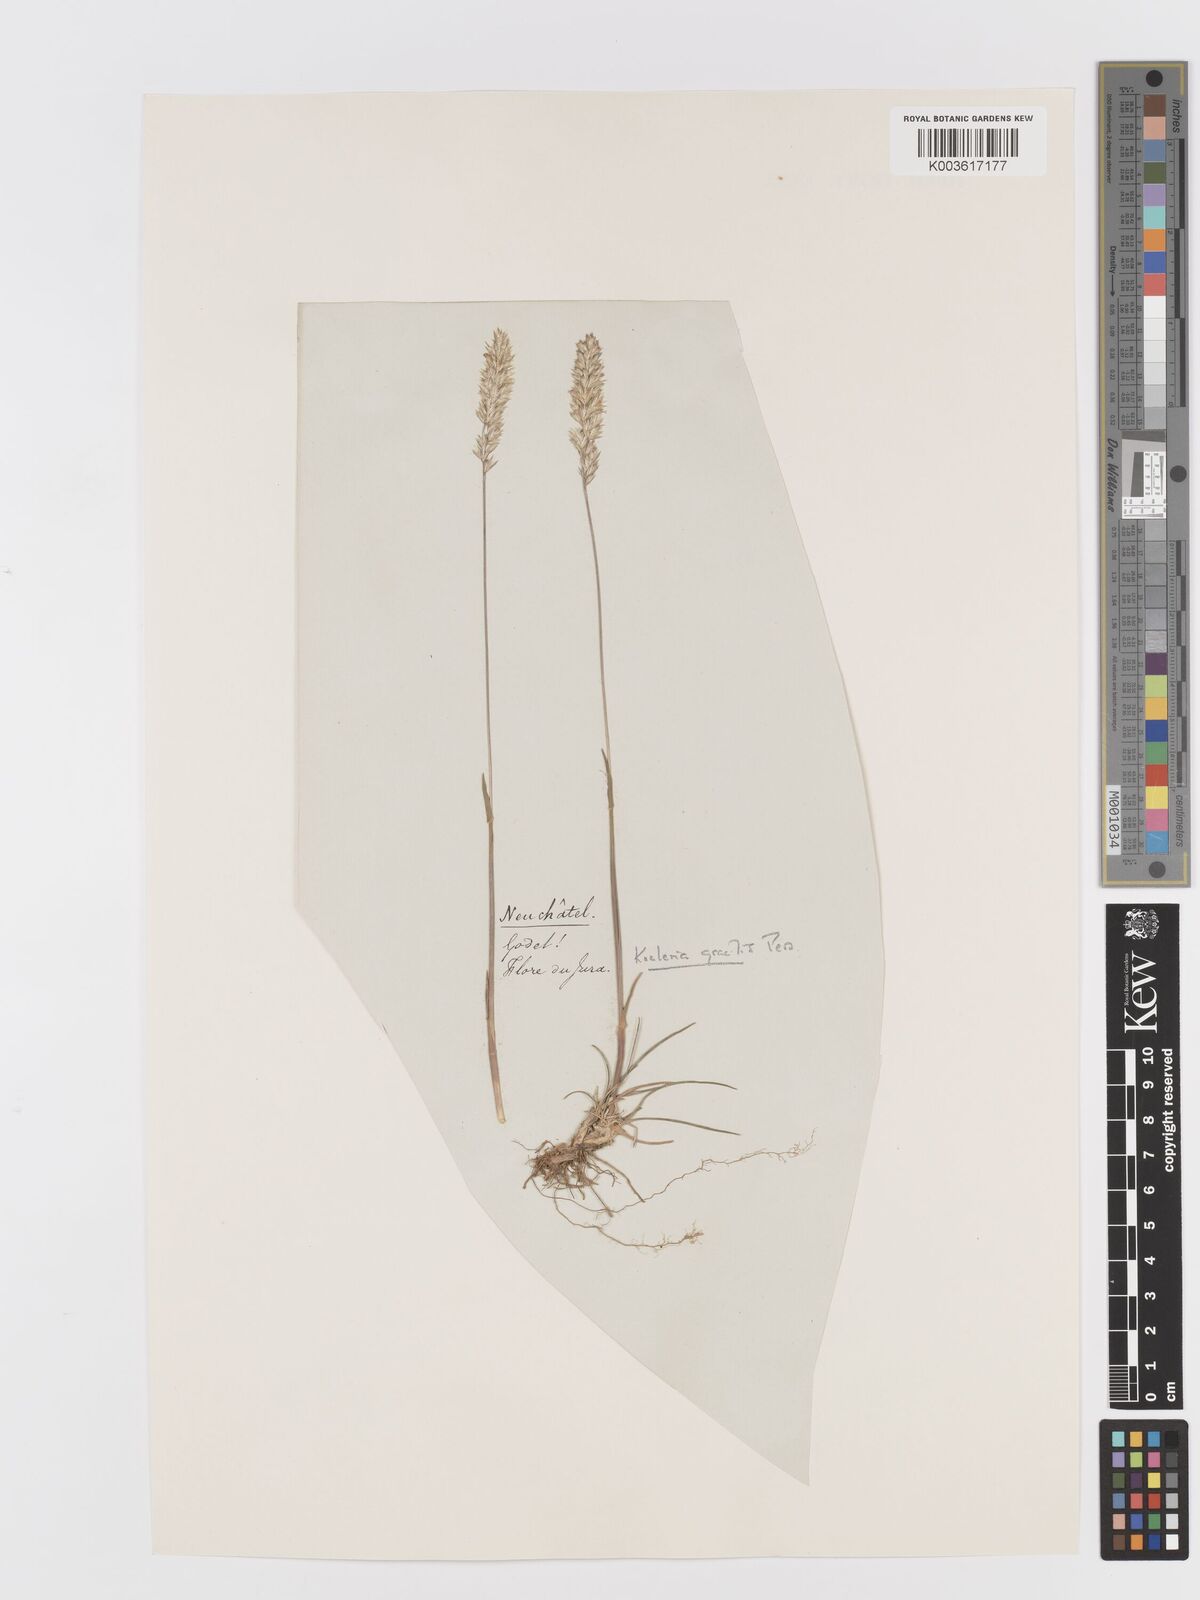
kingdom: Plantae
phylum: Tracheophyta
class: Liliopsida
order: Poales
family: Poaceae
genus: Koeleria
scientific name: Koeleria
